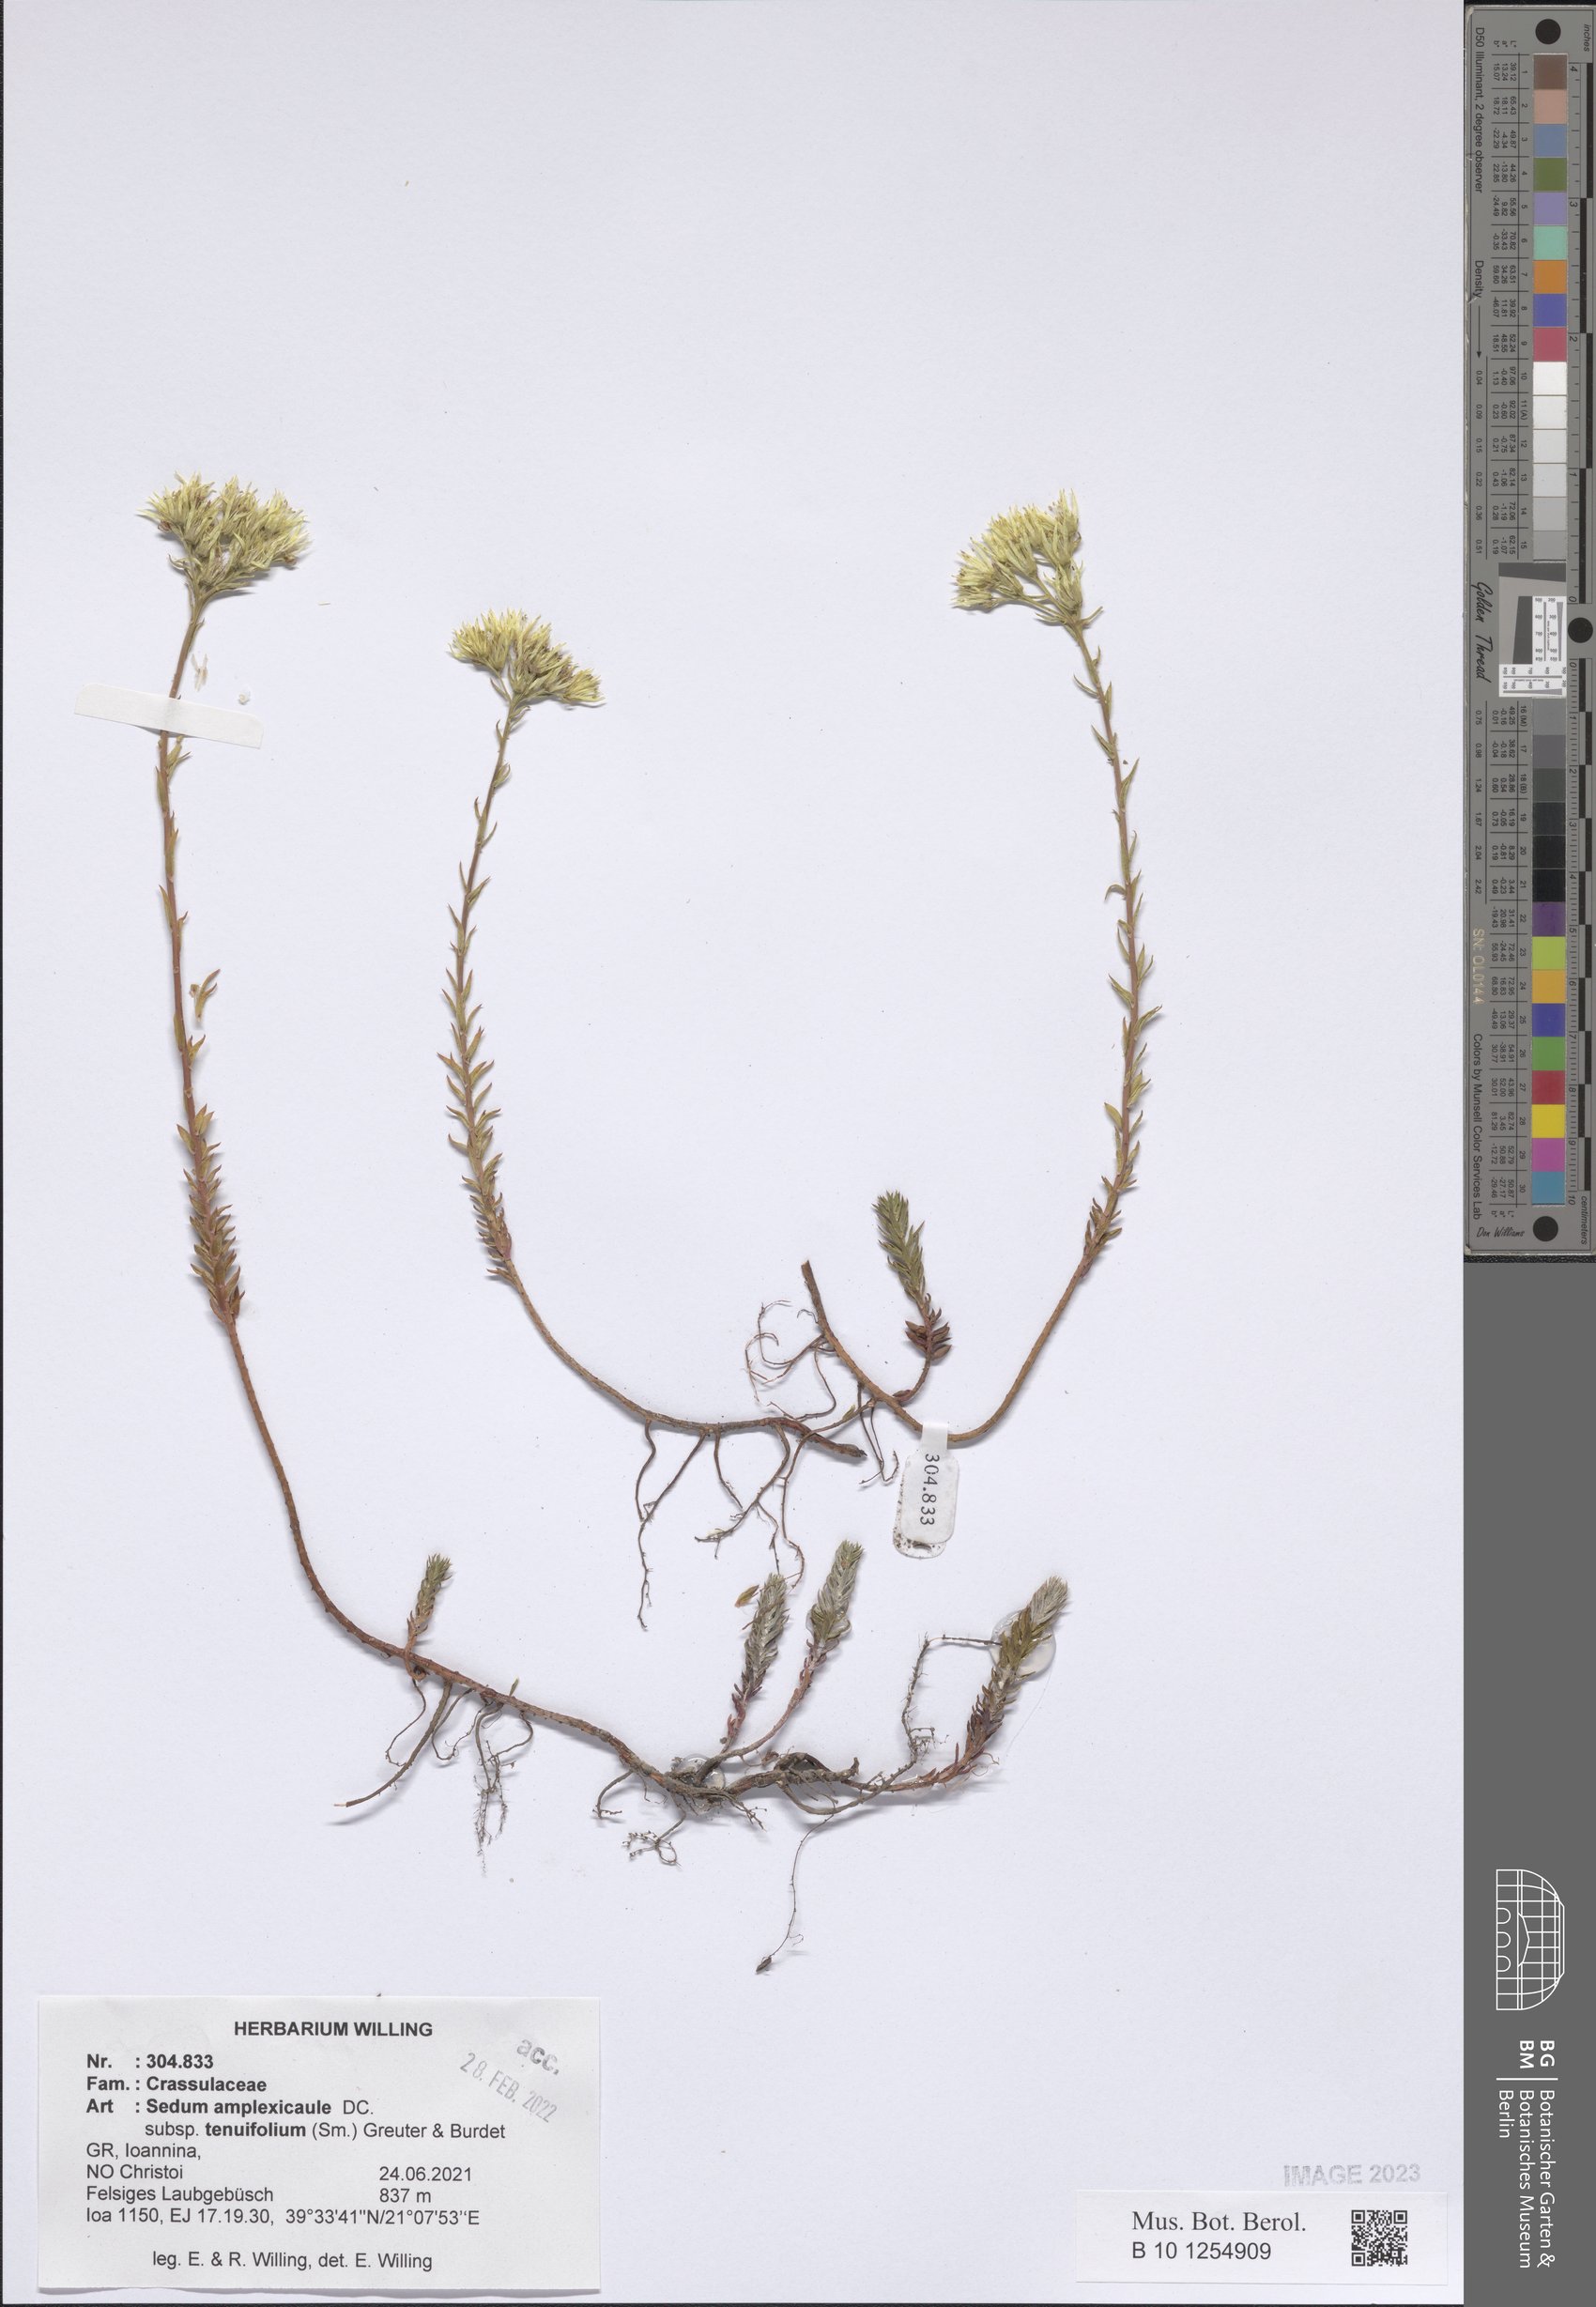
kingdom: Plantae
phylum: Tracheophyta
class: Magnoliopsida
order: Saxifragales
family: Crassulaceae
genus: Petrosedum
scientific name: Petrosedum tenuifolium
